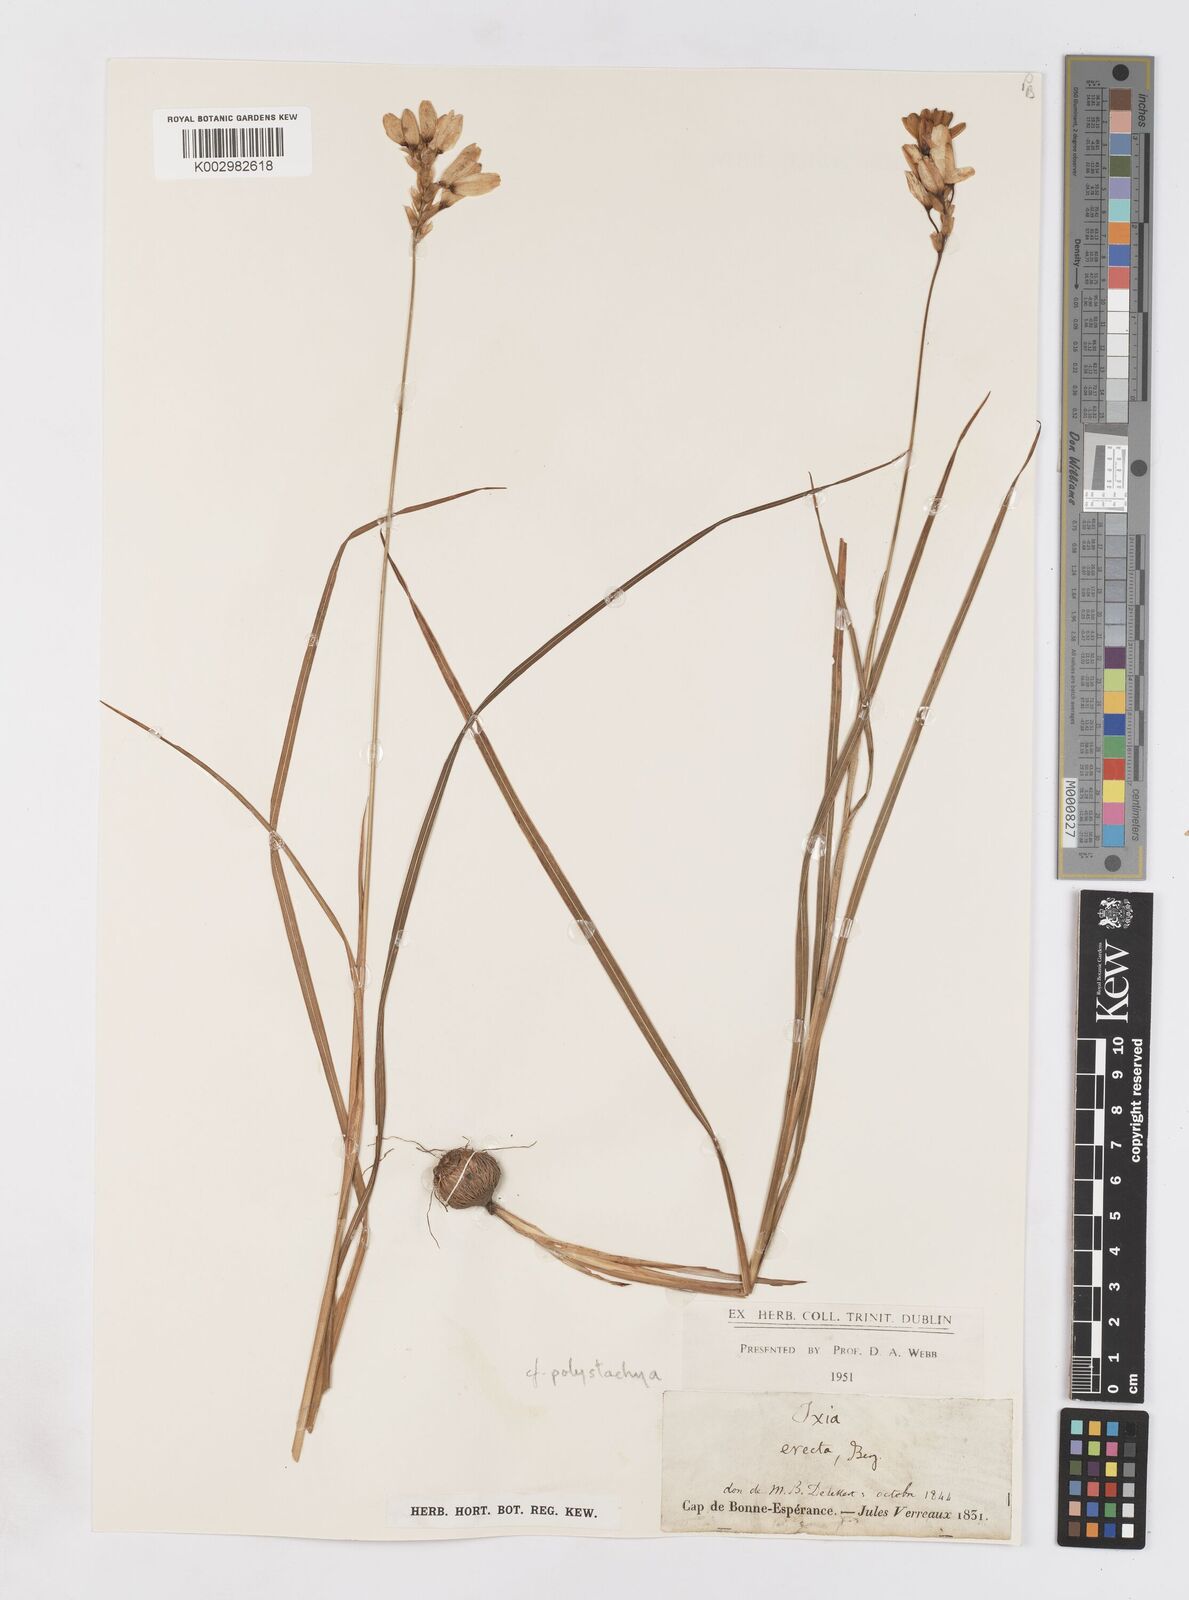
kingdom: Plantae
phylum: Tracheophyta
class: Liliopsida
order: Asparagales
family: Iridaceae
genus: Ixia
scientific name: Ixia polystachya
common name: White-and-yellow-flower cornlily
